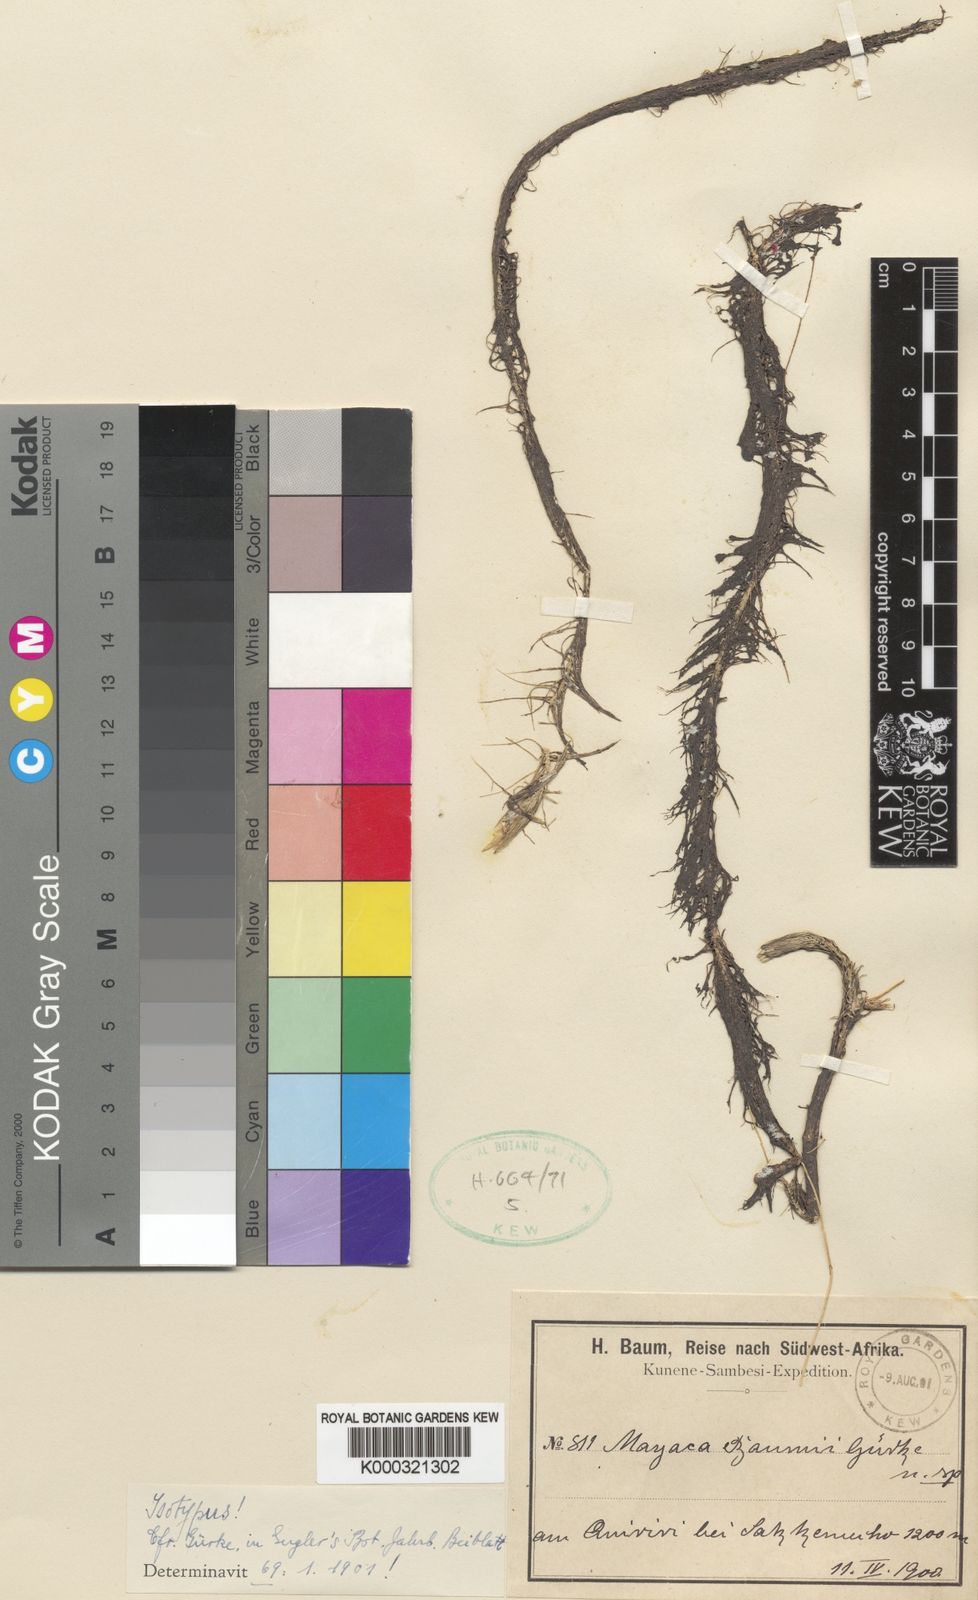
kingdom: Plantae
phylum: Tracheophyta
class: Liliopsida
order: Poales
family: Mayacaceae
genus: Mayaca
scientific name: Mayaca
